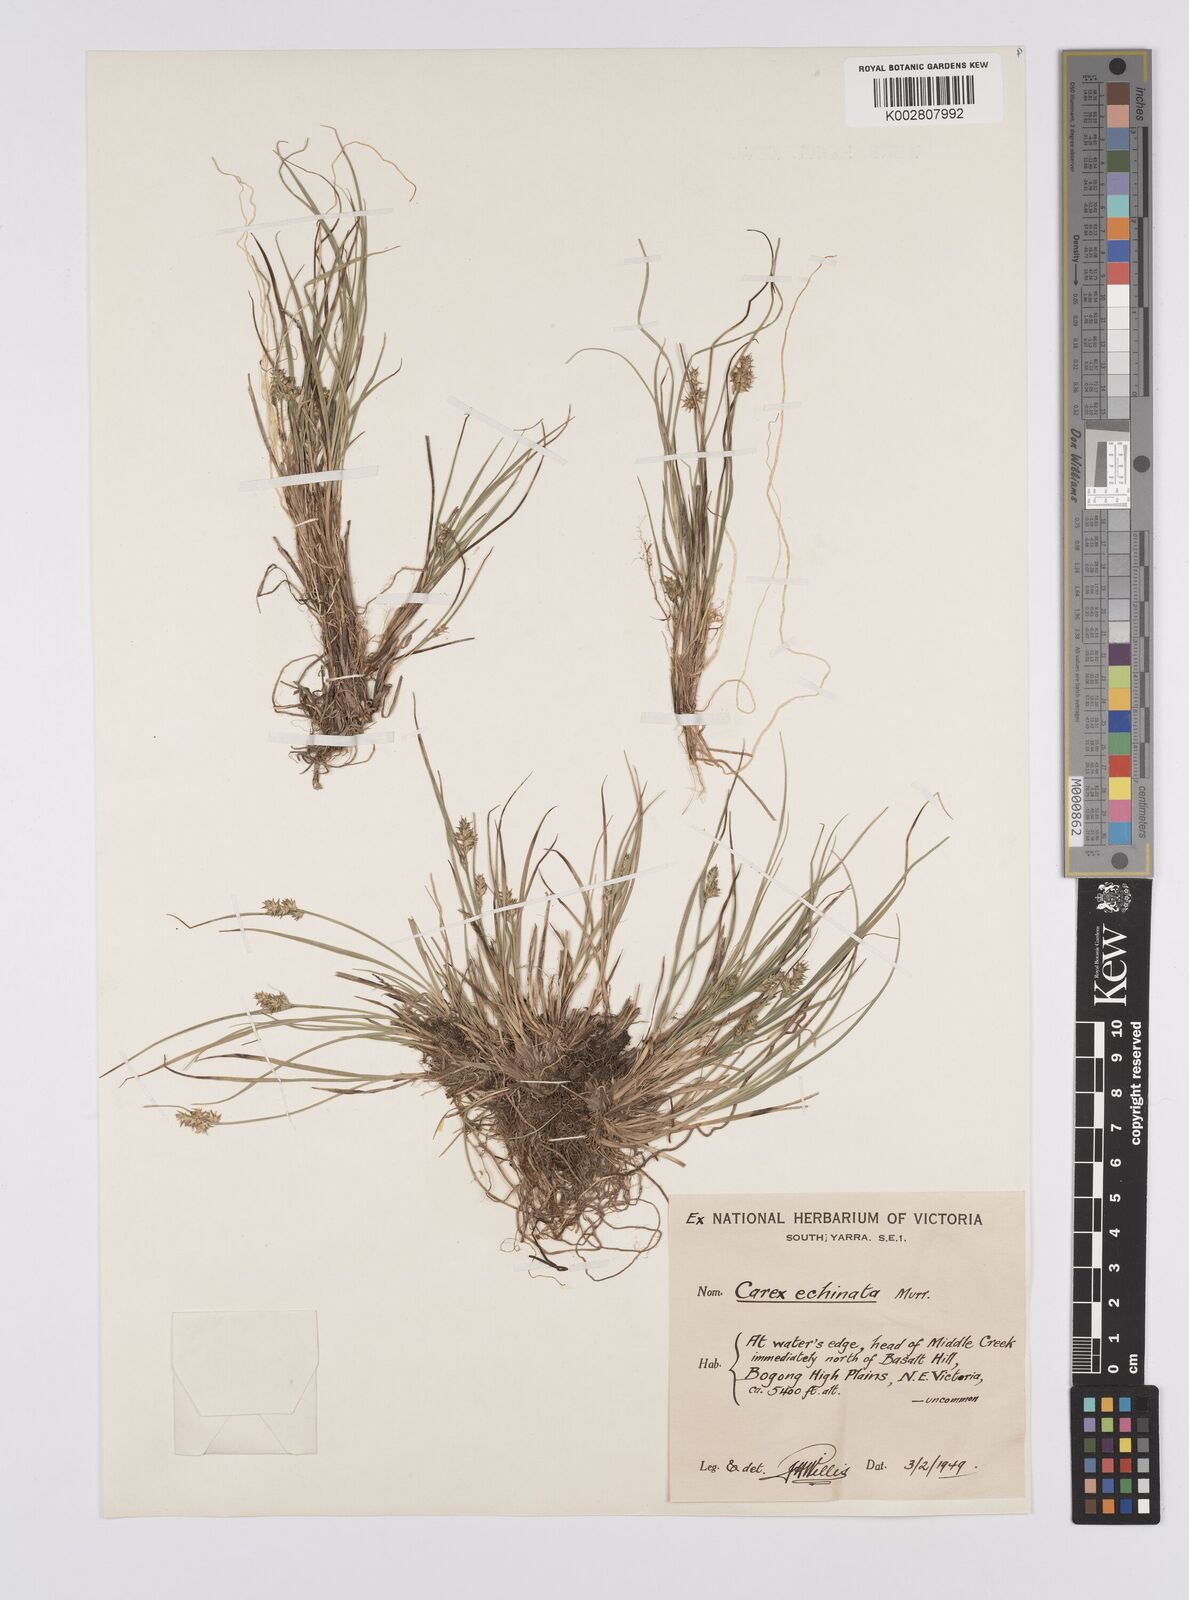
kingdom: Plantae
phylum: Tracheophyta
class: Liliopsida
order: Poales
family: Cyperaceae
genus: Carex
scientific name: Carex echinata
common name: Star sedge
